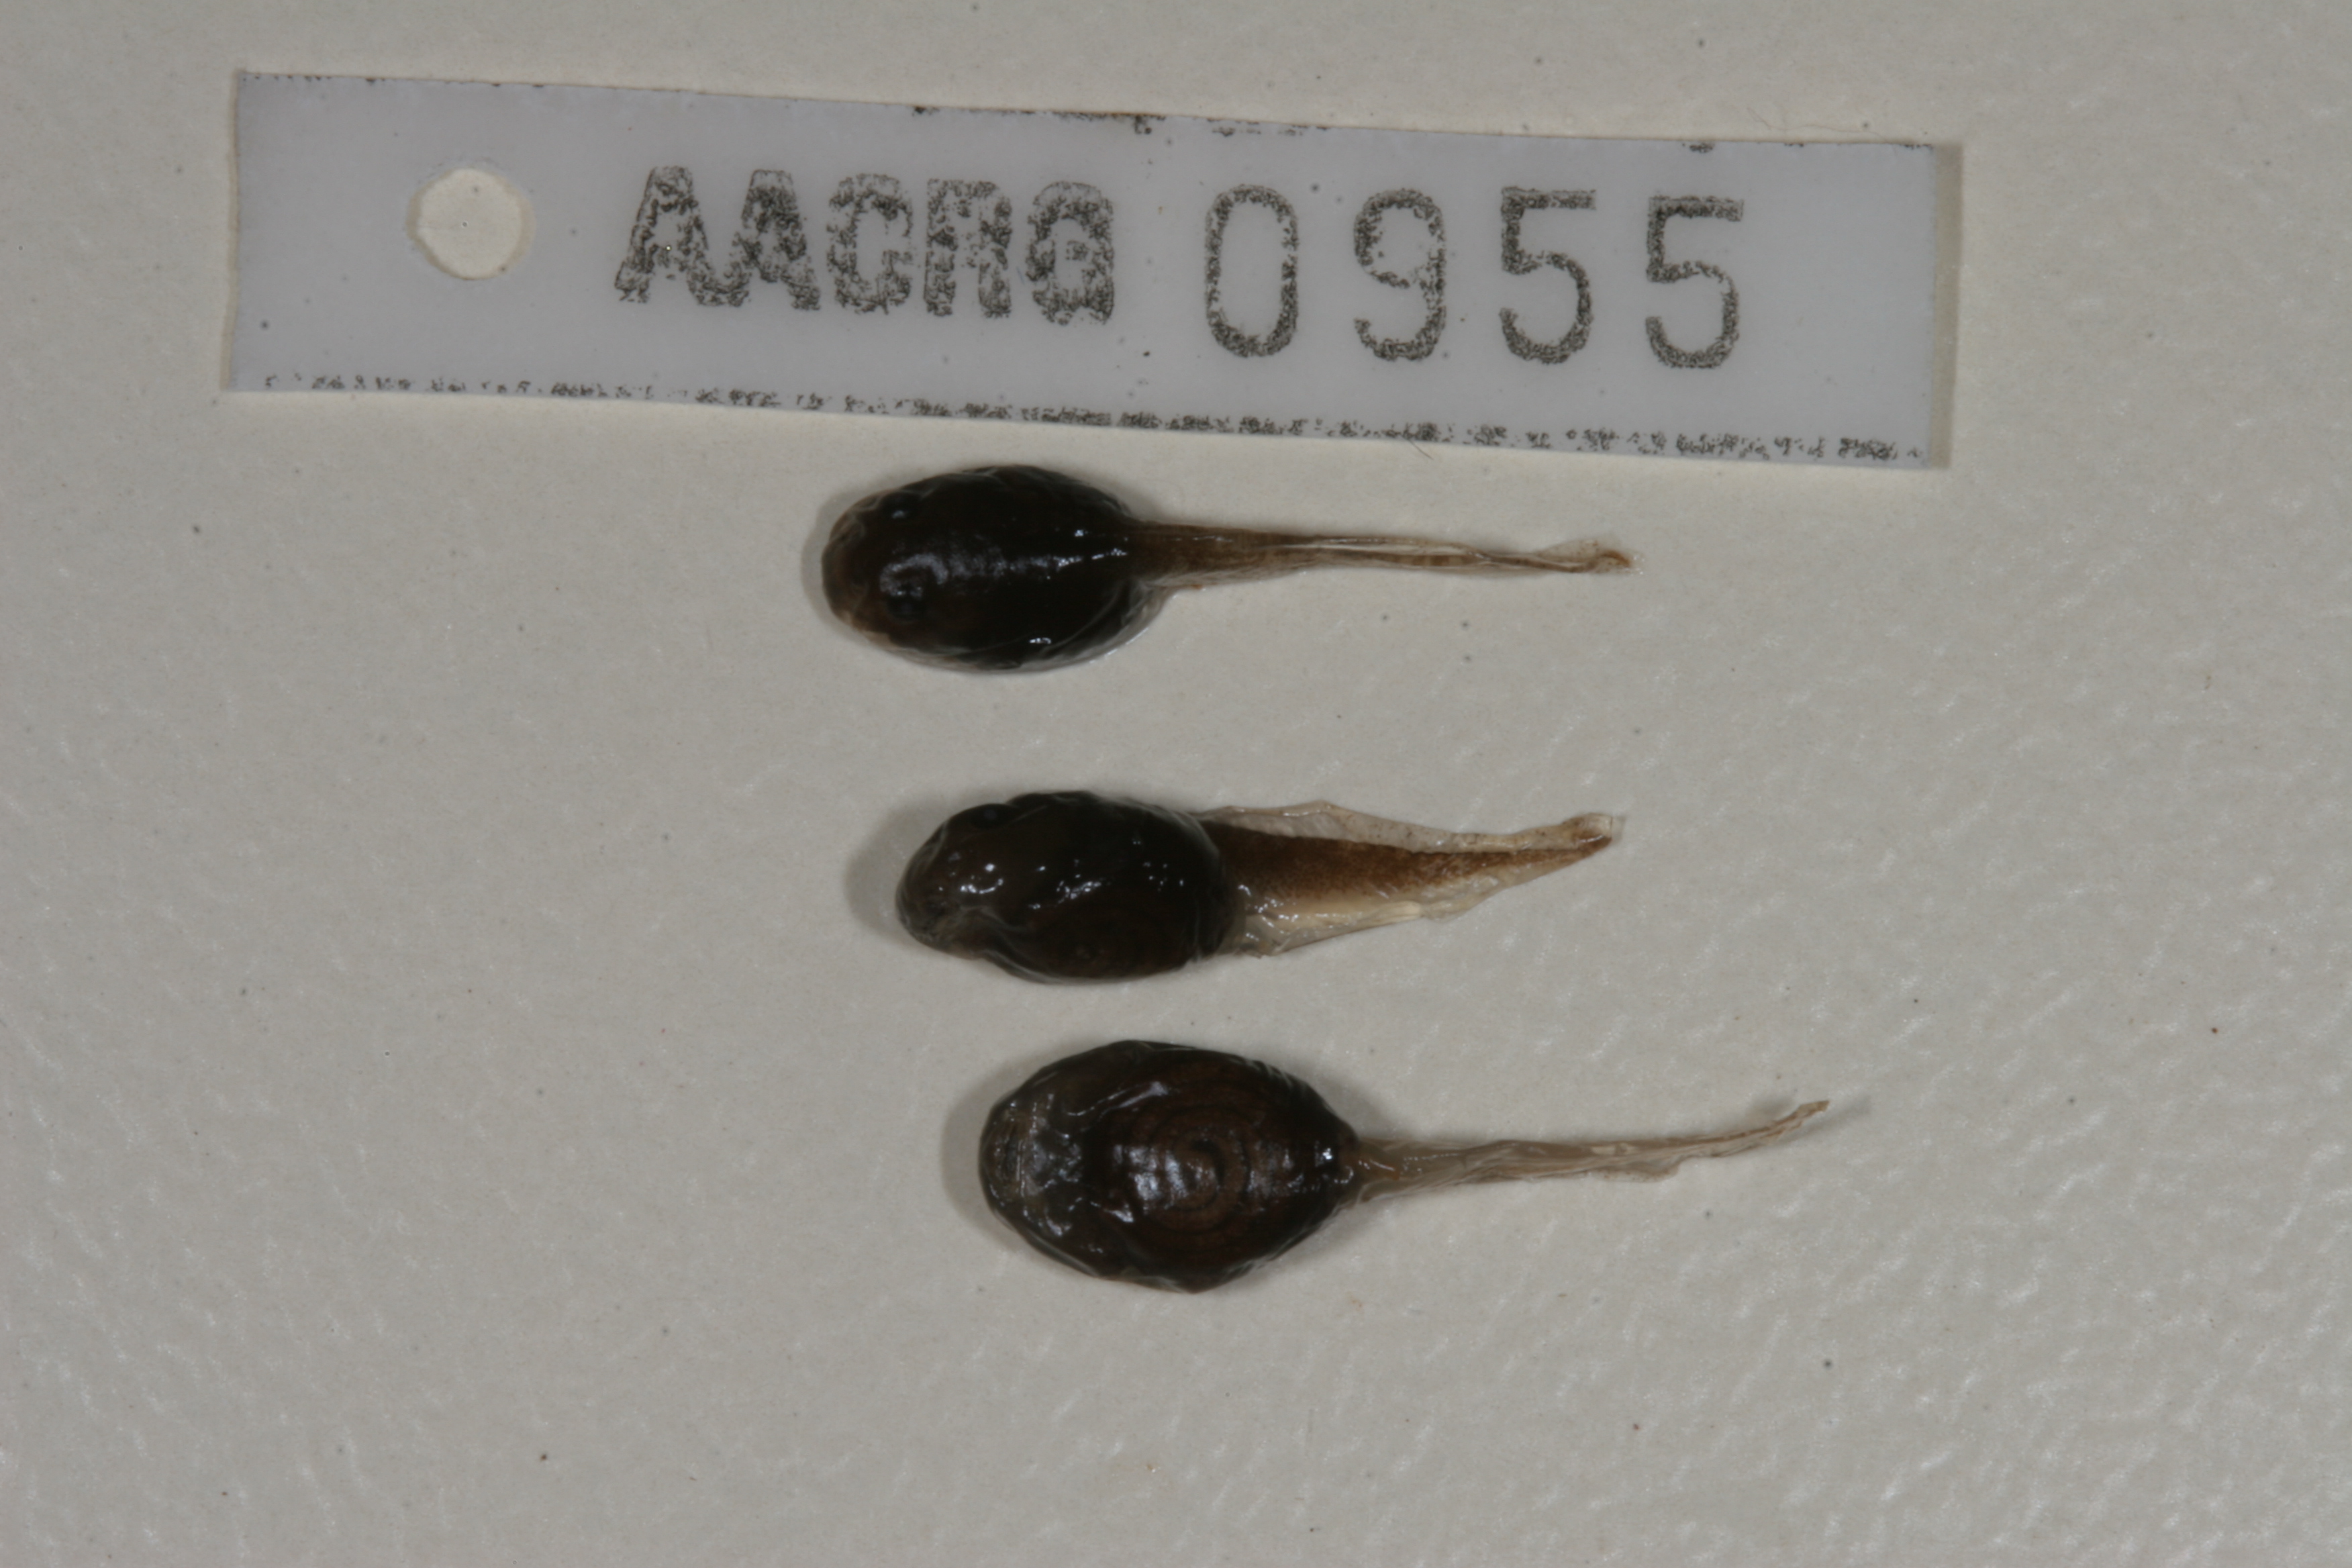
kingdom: Animalia
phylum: Chordata
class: Amphibia
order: Anura
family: Bufonidae
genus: Sclerophrys
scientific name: Sclerophrys gutturalis
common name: African common toad
